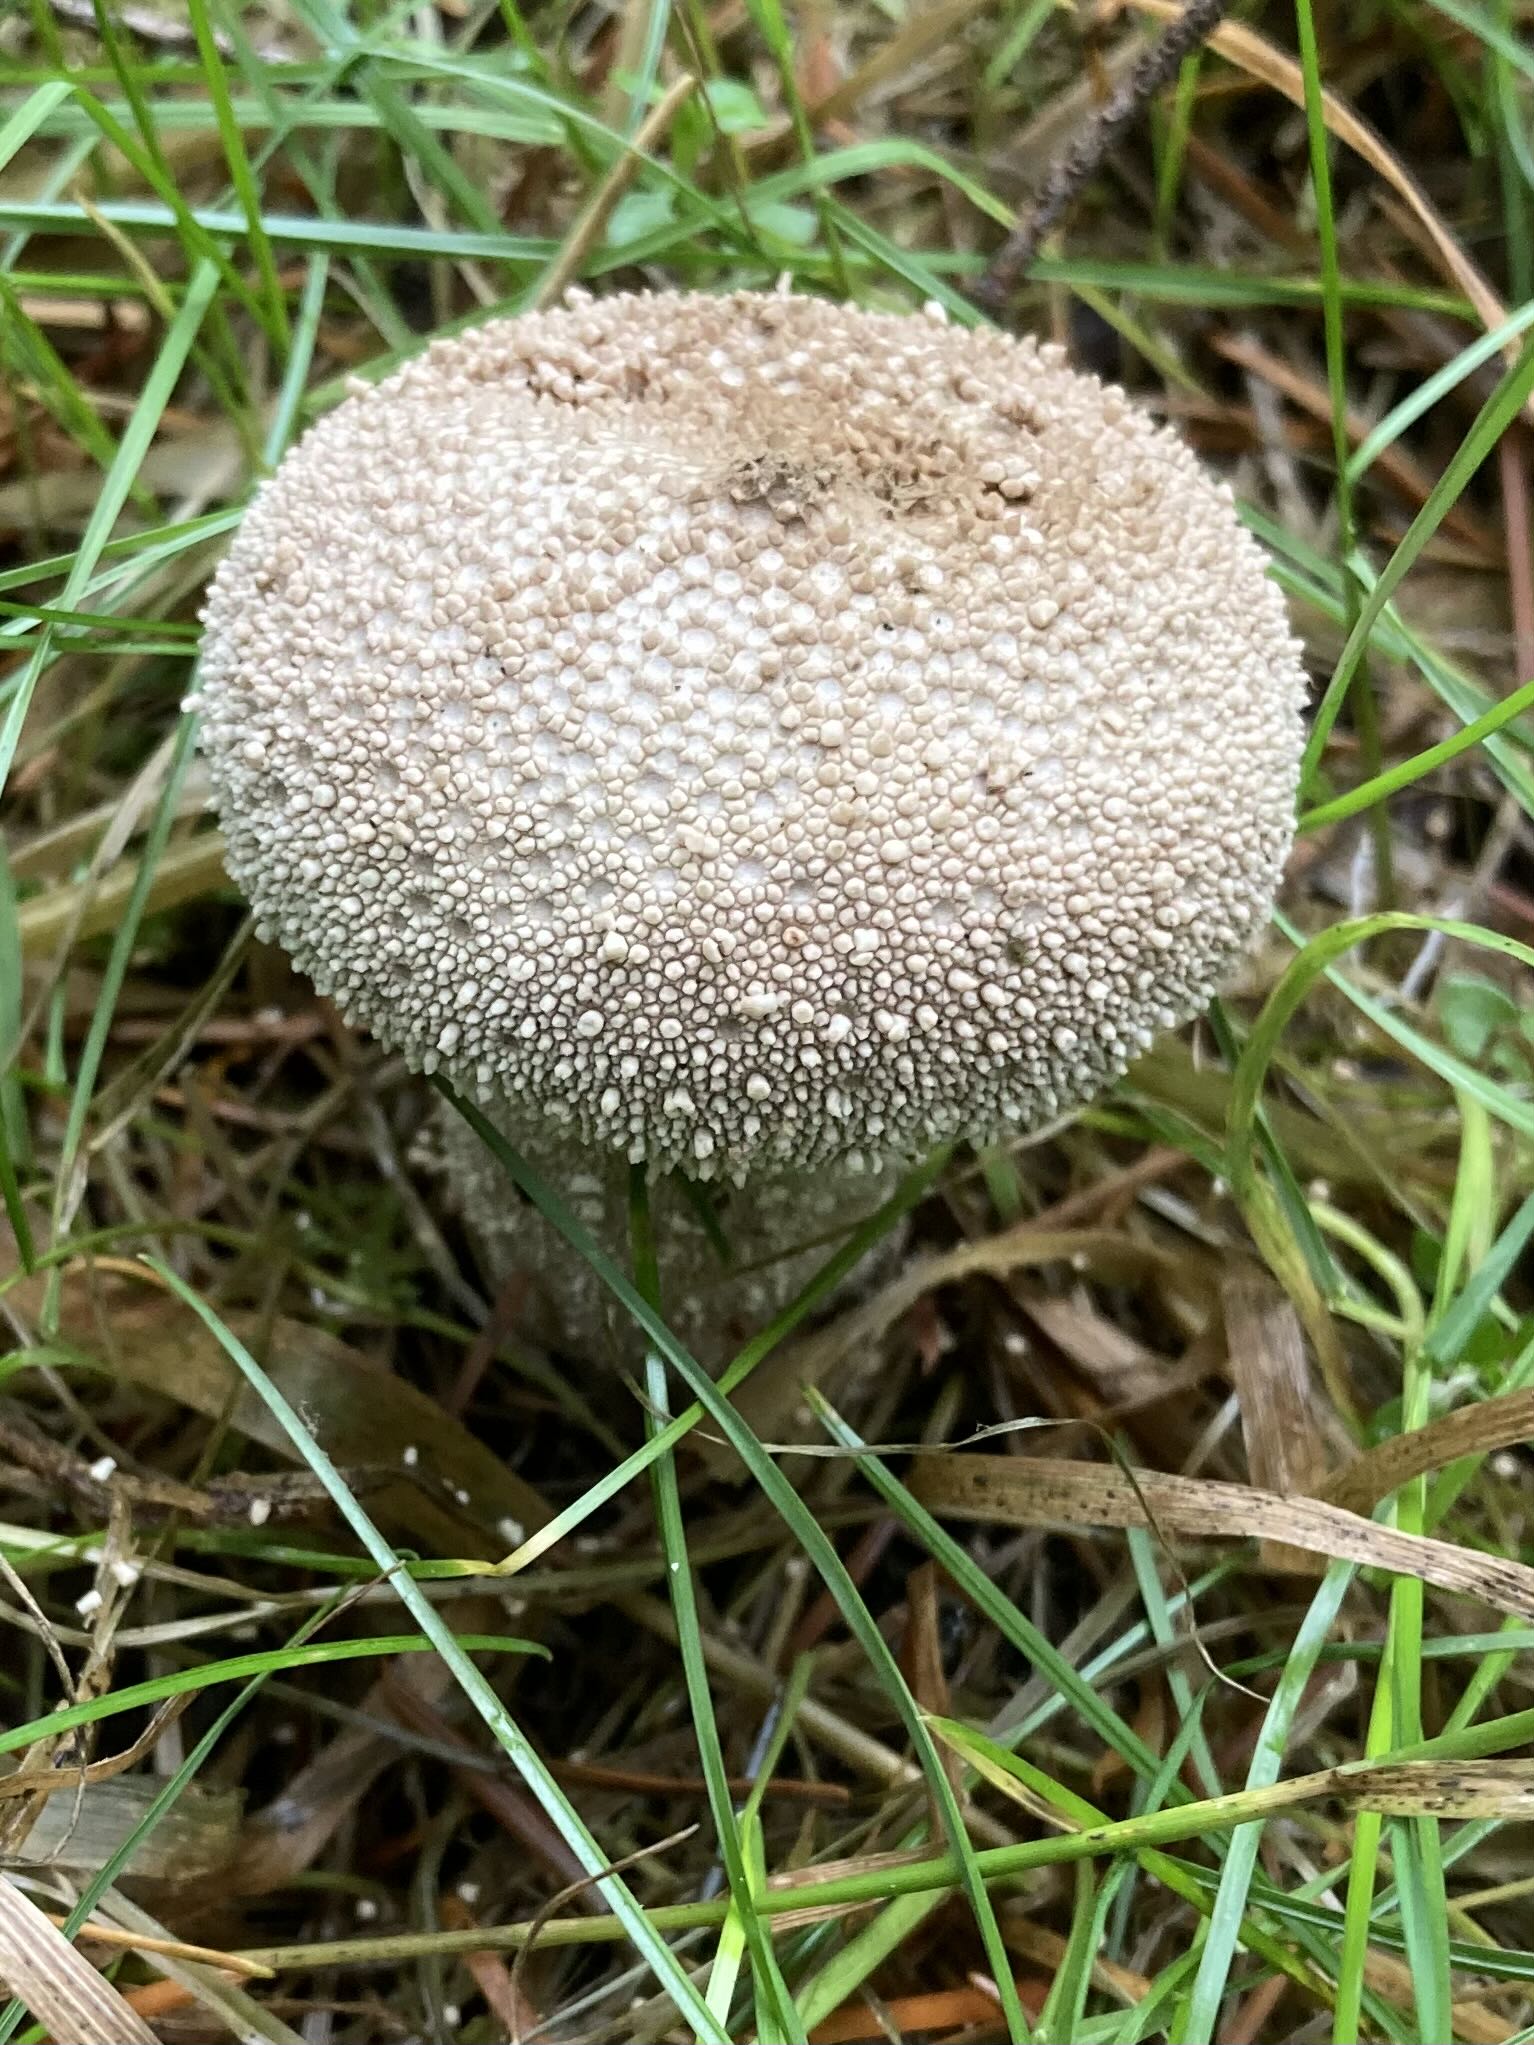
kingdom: Fungi
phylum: Basidiomycota
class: Agaricomycetes
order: Agaricales
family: Lycoperdaceae
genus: Lycoperdon
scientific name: Lycoperdon perlatum
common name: krystal-støvbold
